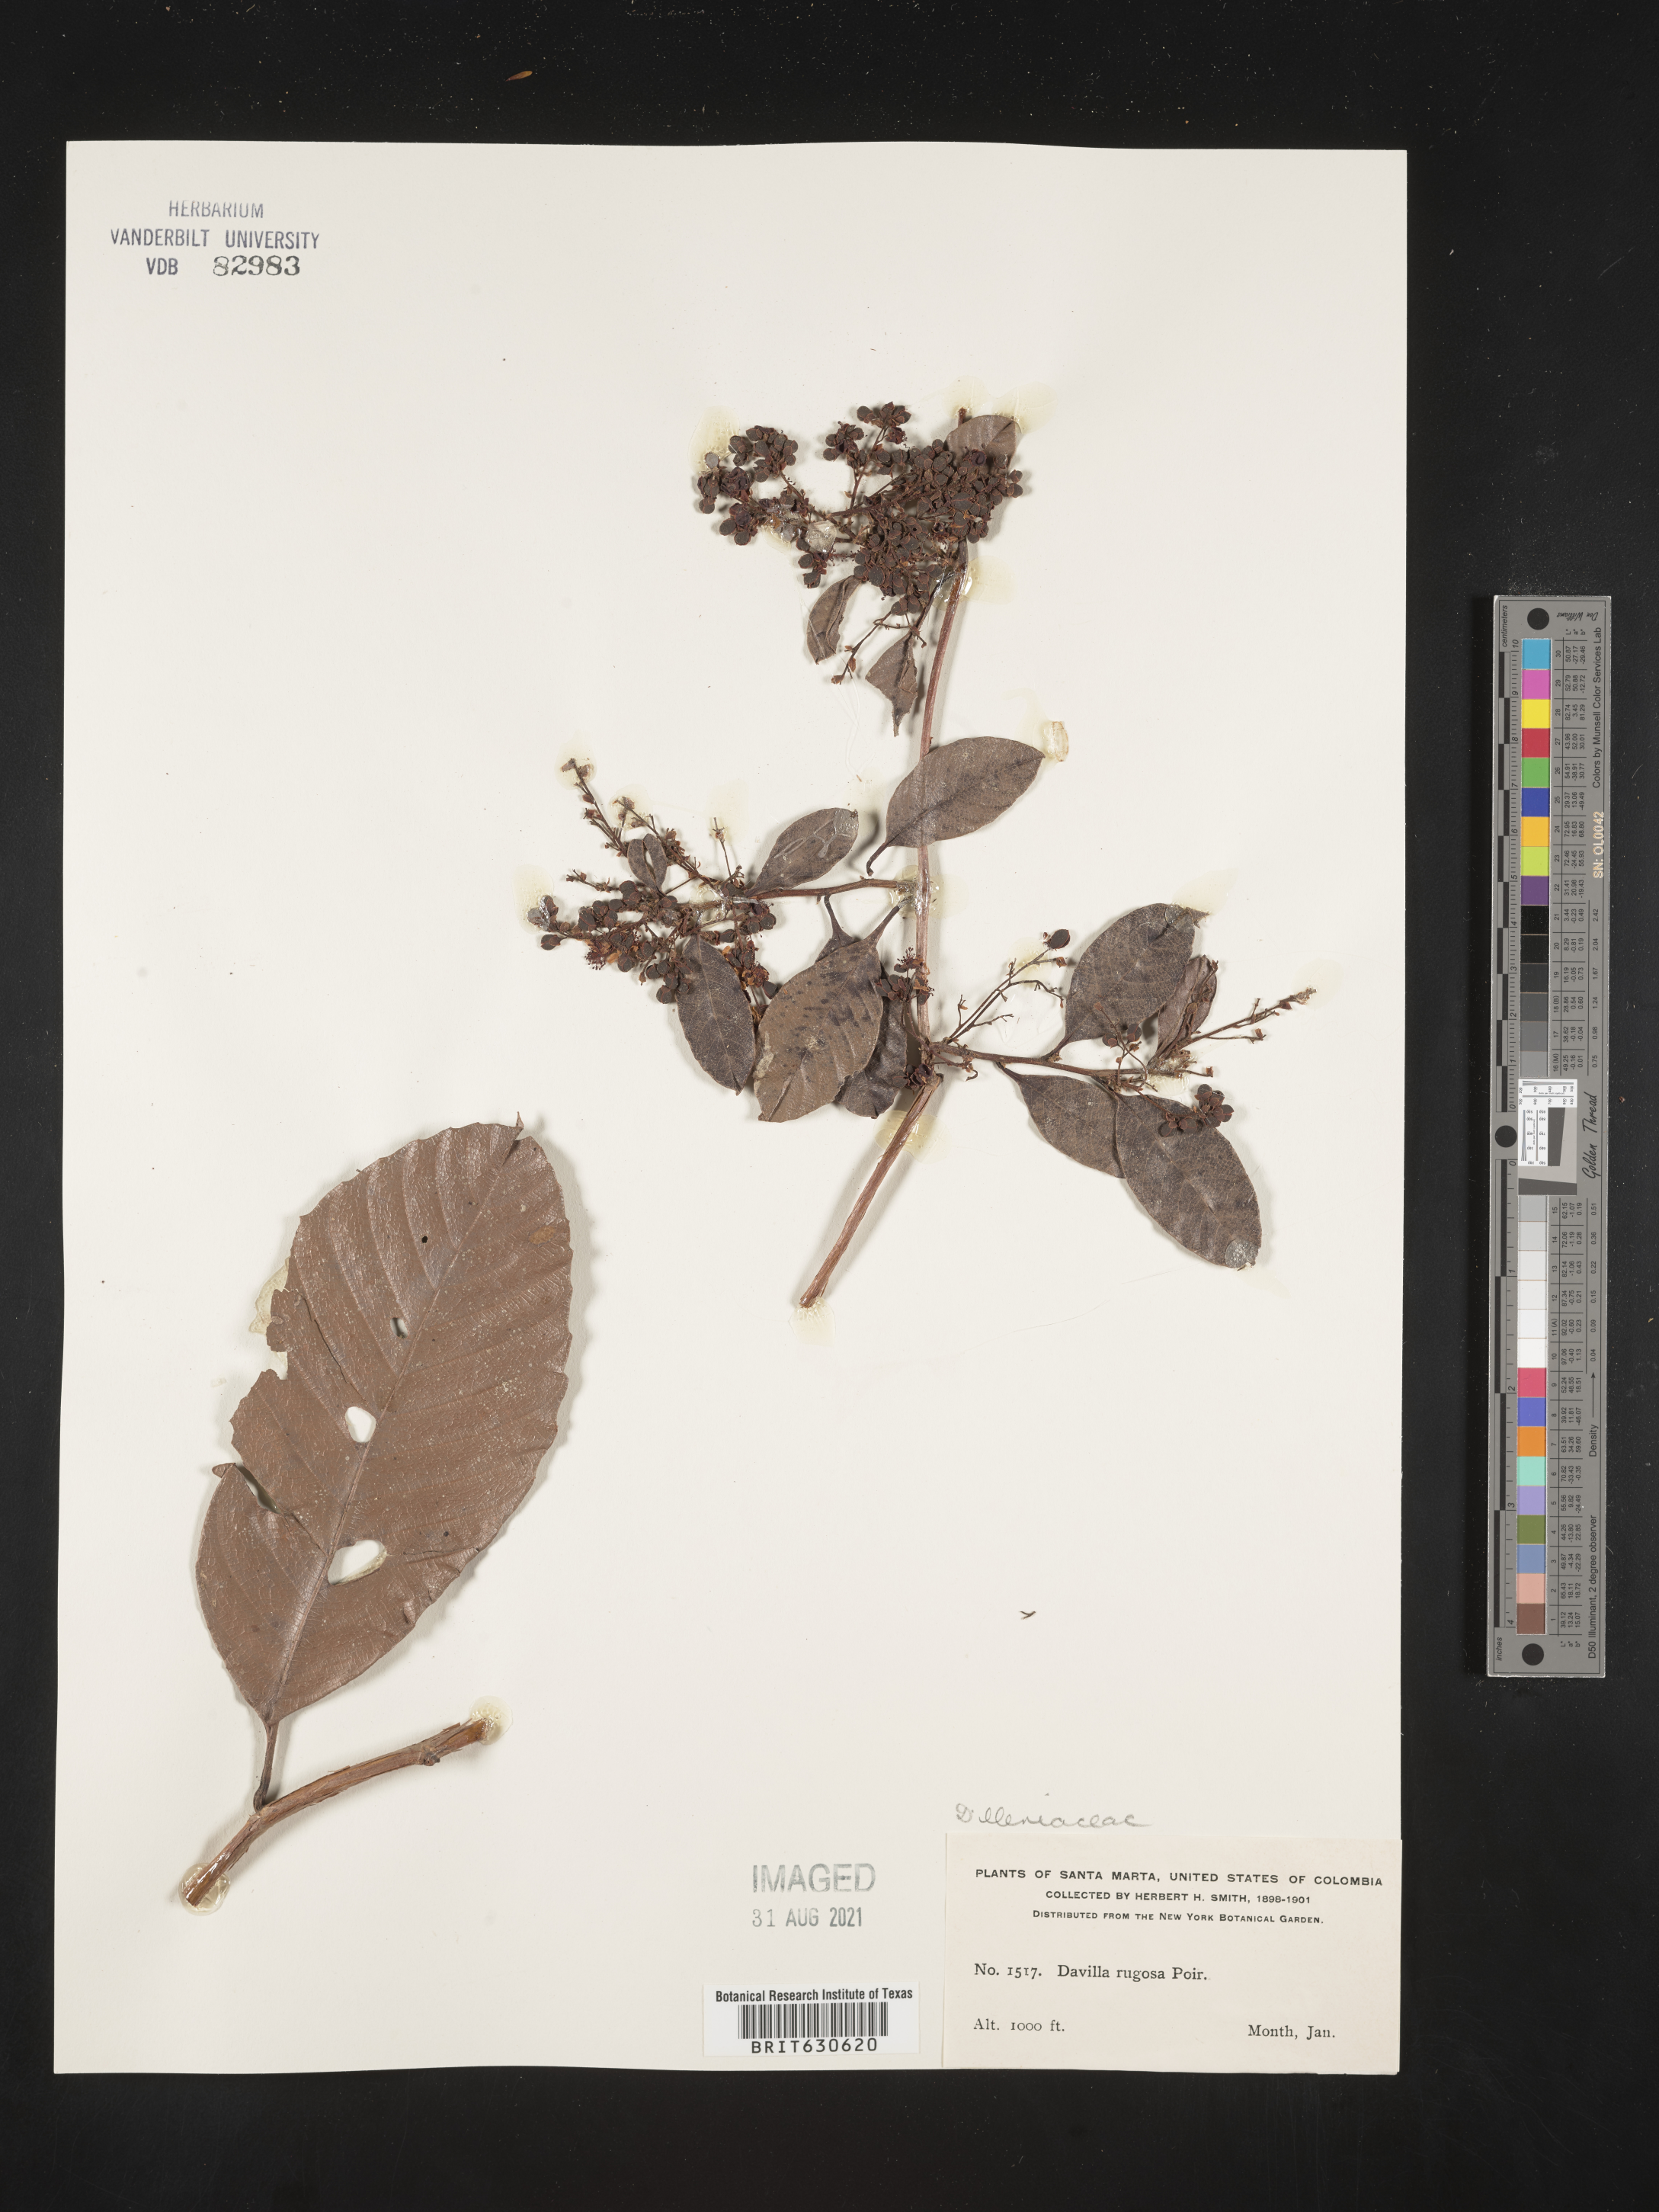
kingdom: Plantae
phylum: Tracheophyta
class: Magnoliopsida
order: Dilleniales
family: Dilleniaceae
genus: Davilla
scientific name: Davilla
